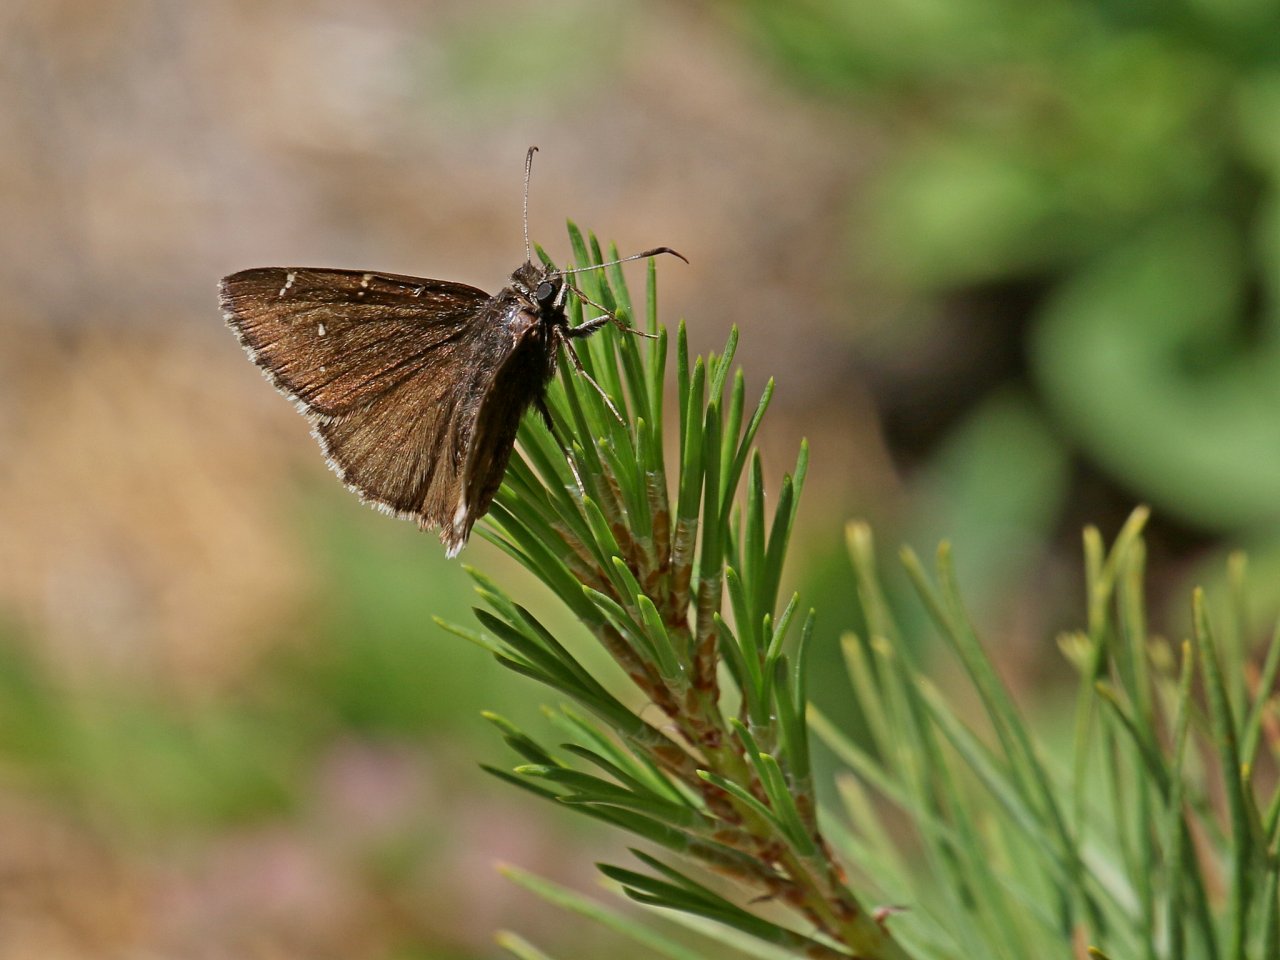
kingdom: Animalia
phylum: Arthropoda
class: Insecta
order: Lepidoptera
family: Hesperiidae
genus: Autochton
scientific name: Autochton
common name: Northern Cloudywing
